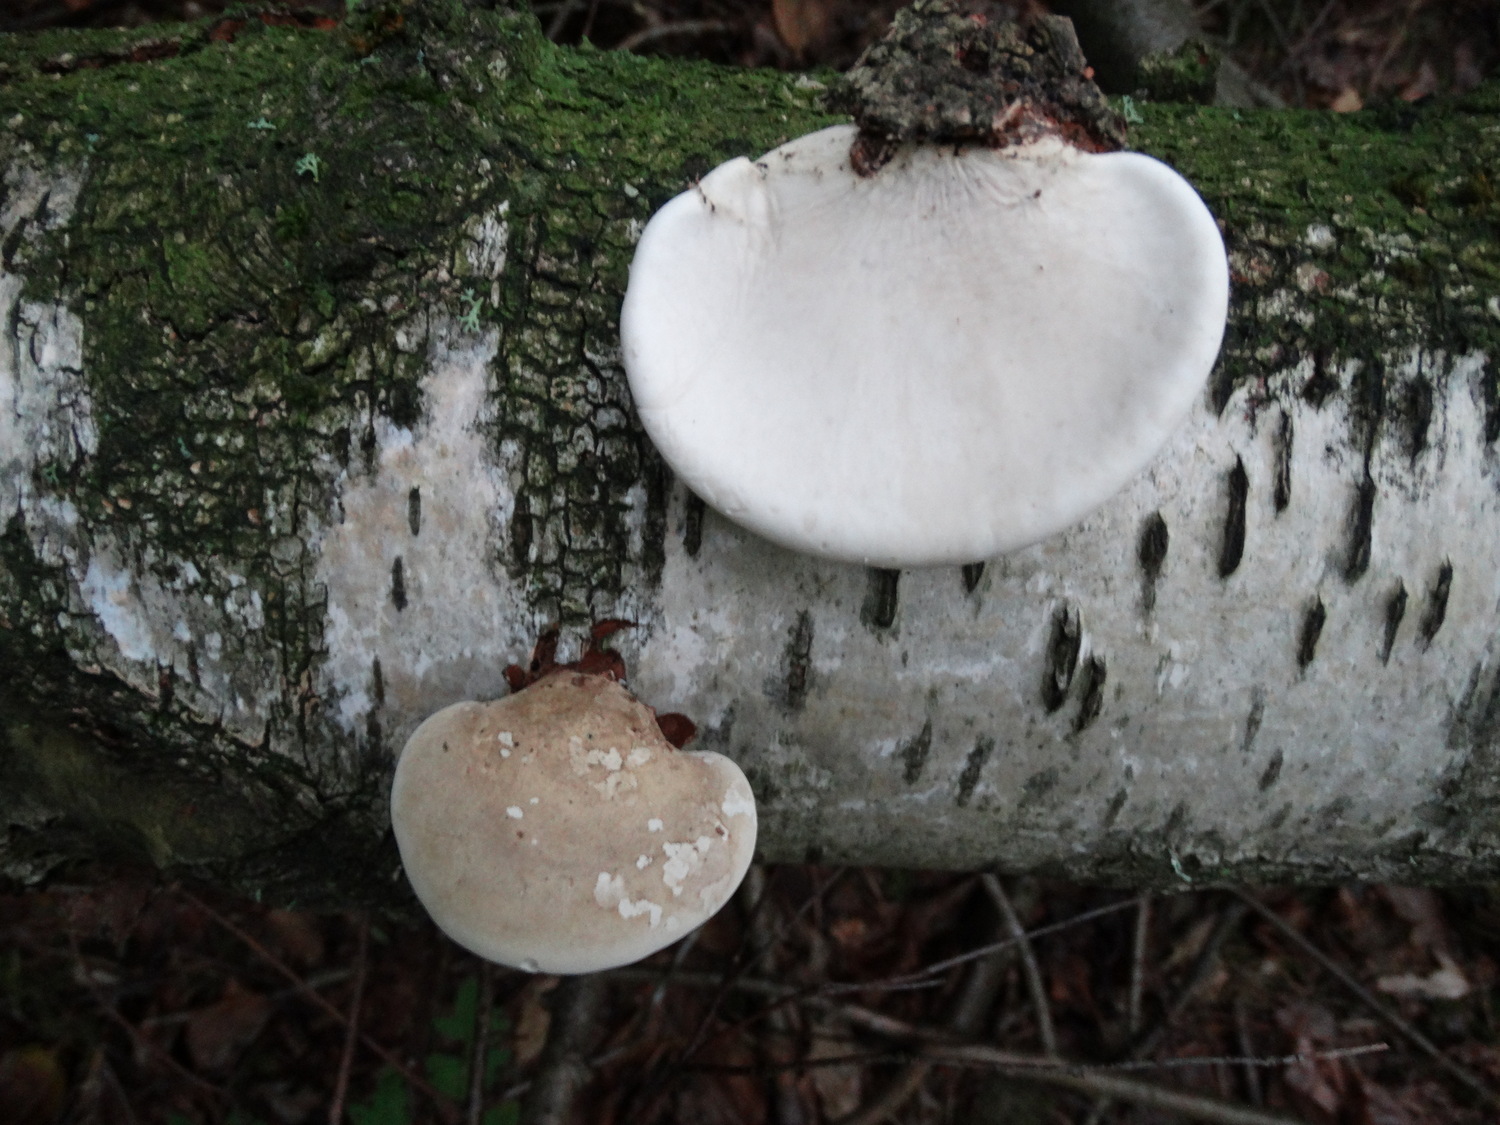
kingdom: Fungi
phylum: Basidiomycota
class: Agaricomycetes
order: Polyporales
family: Fomitopsidaceae
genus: Fomitopsis
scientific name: Fomitopsis betulina
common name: birkeporesvamp
